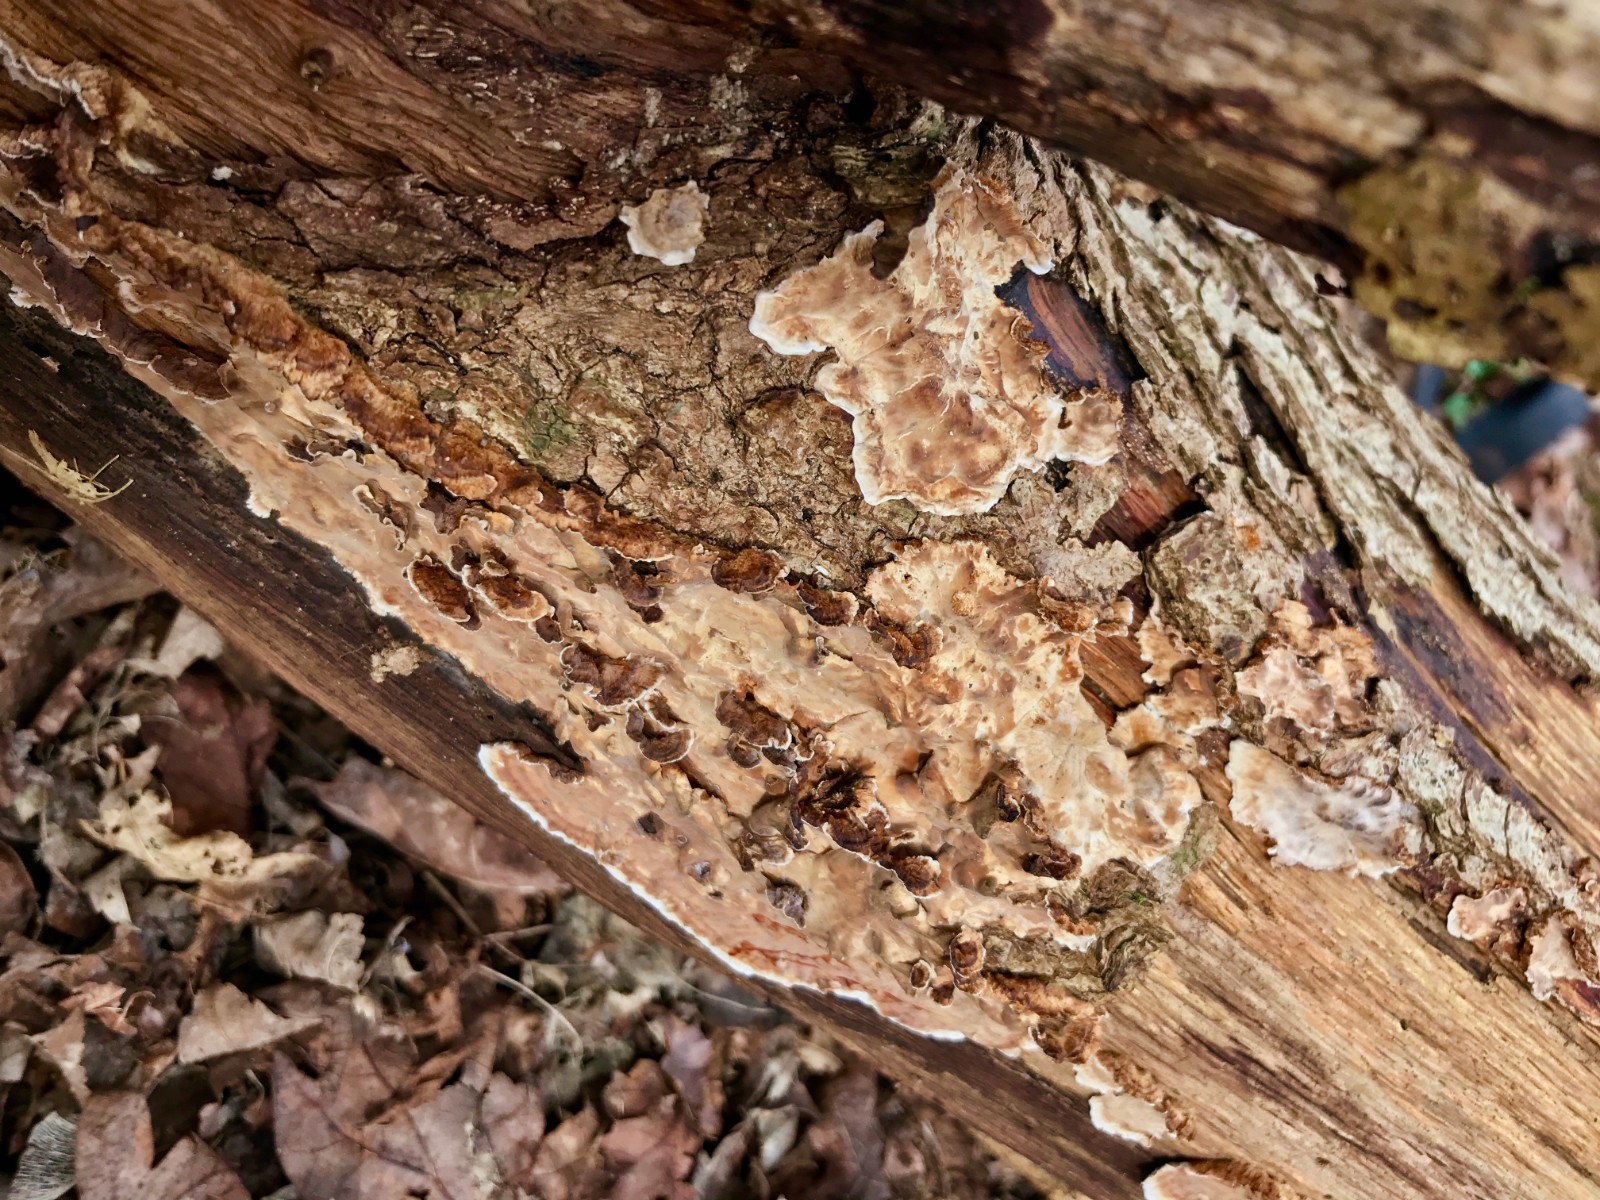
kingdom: Fungi
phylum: Basidiomycota
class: Agaricomycetes
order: Russulales
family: Stereaceae
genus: Stereum
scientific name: Stereum sanguinolentum
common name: blødende lædersvamp
